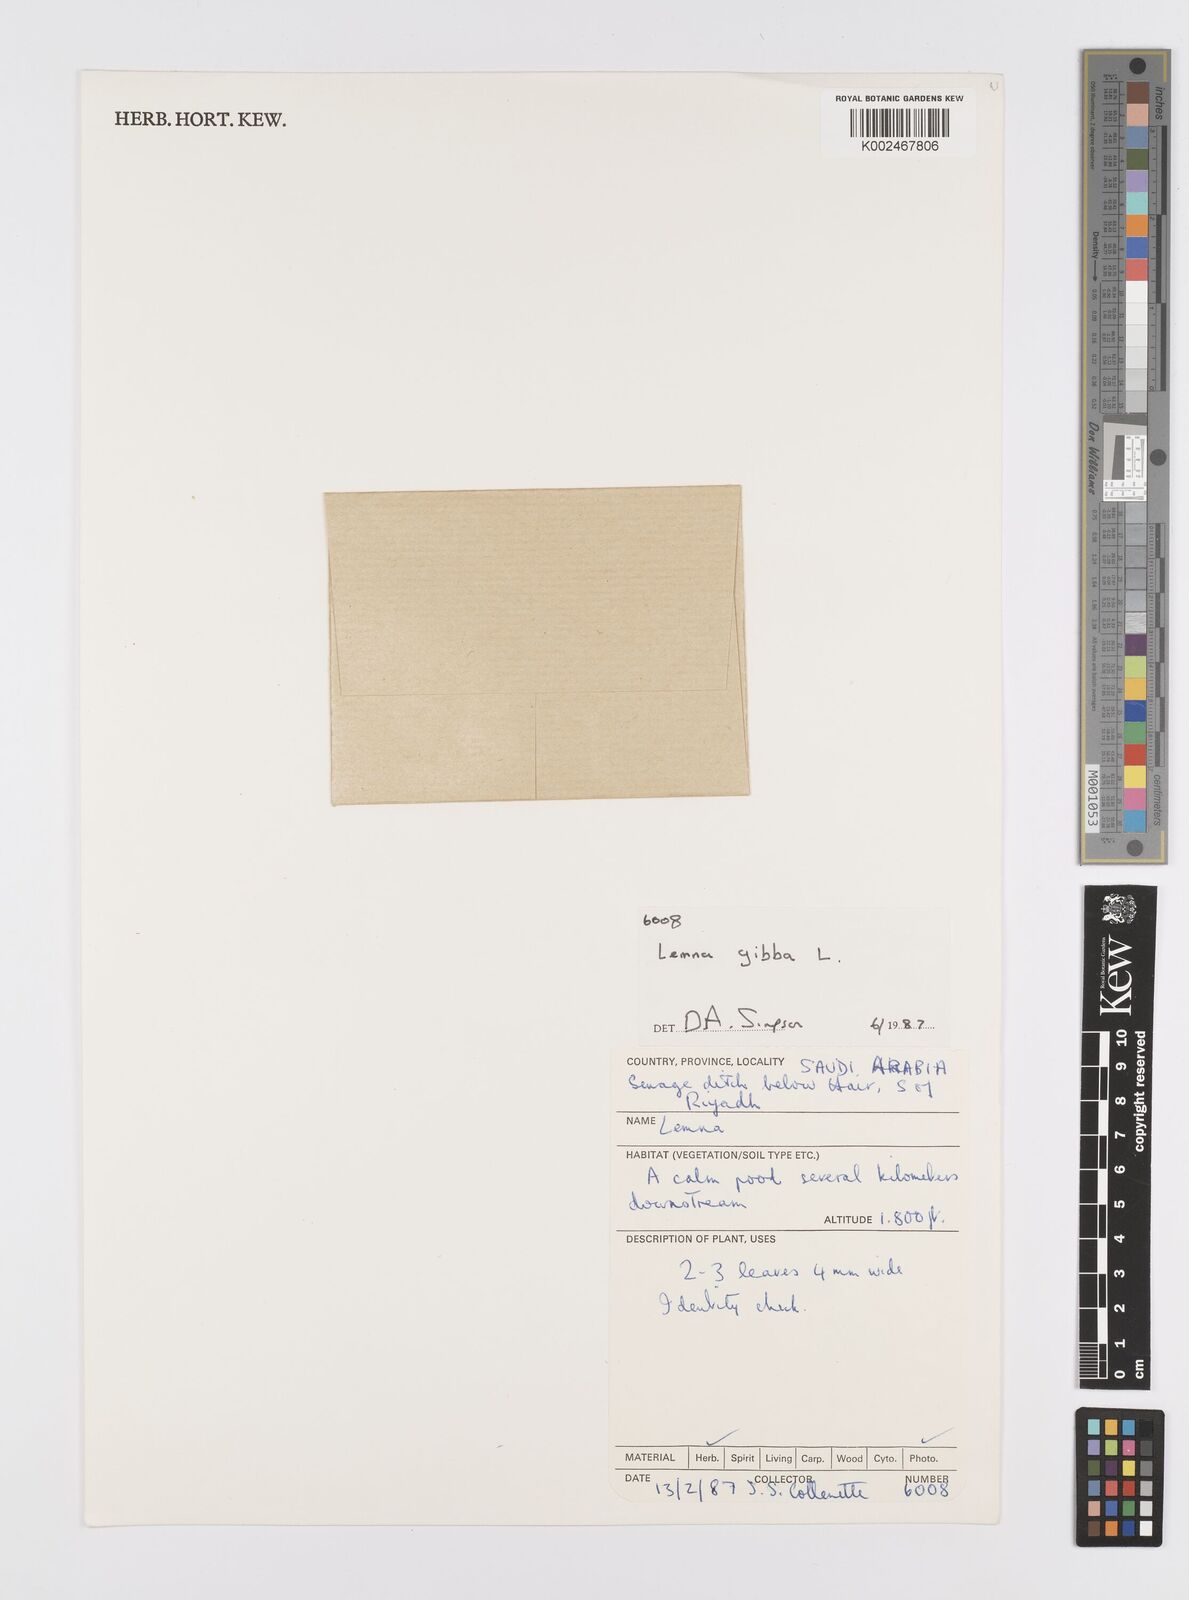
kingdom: Plantae
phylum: Tracheophyta
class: Liliopsida
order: Alismatales
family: Araceae
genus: Lemna
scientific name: Lemna gibba
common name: Fat duckweed
